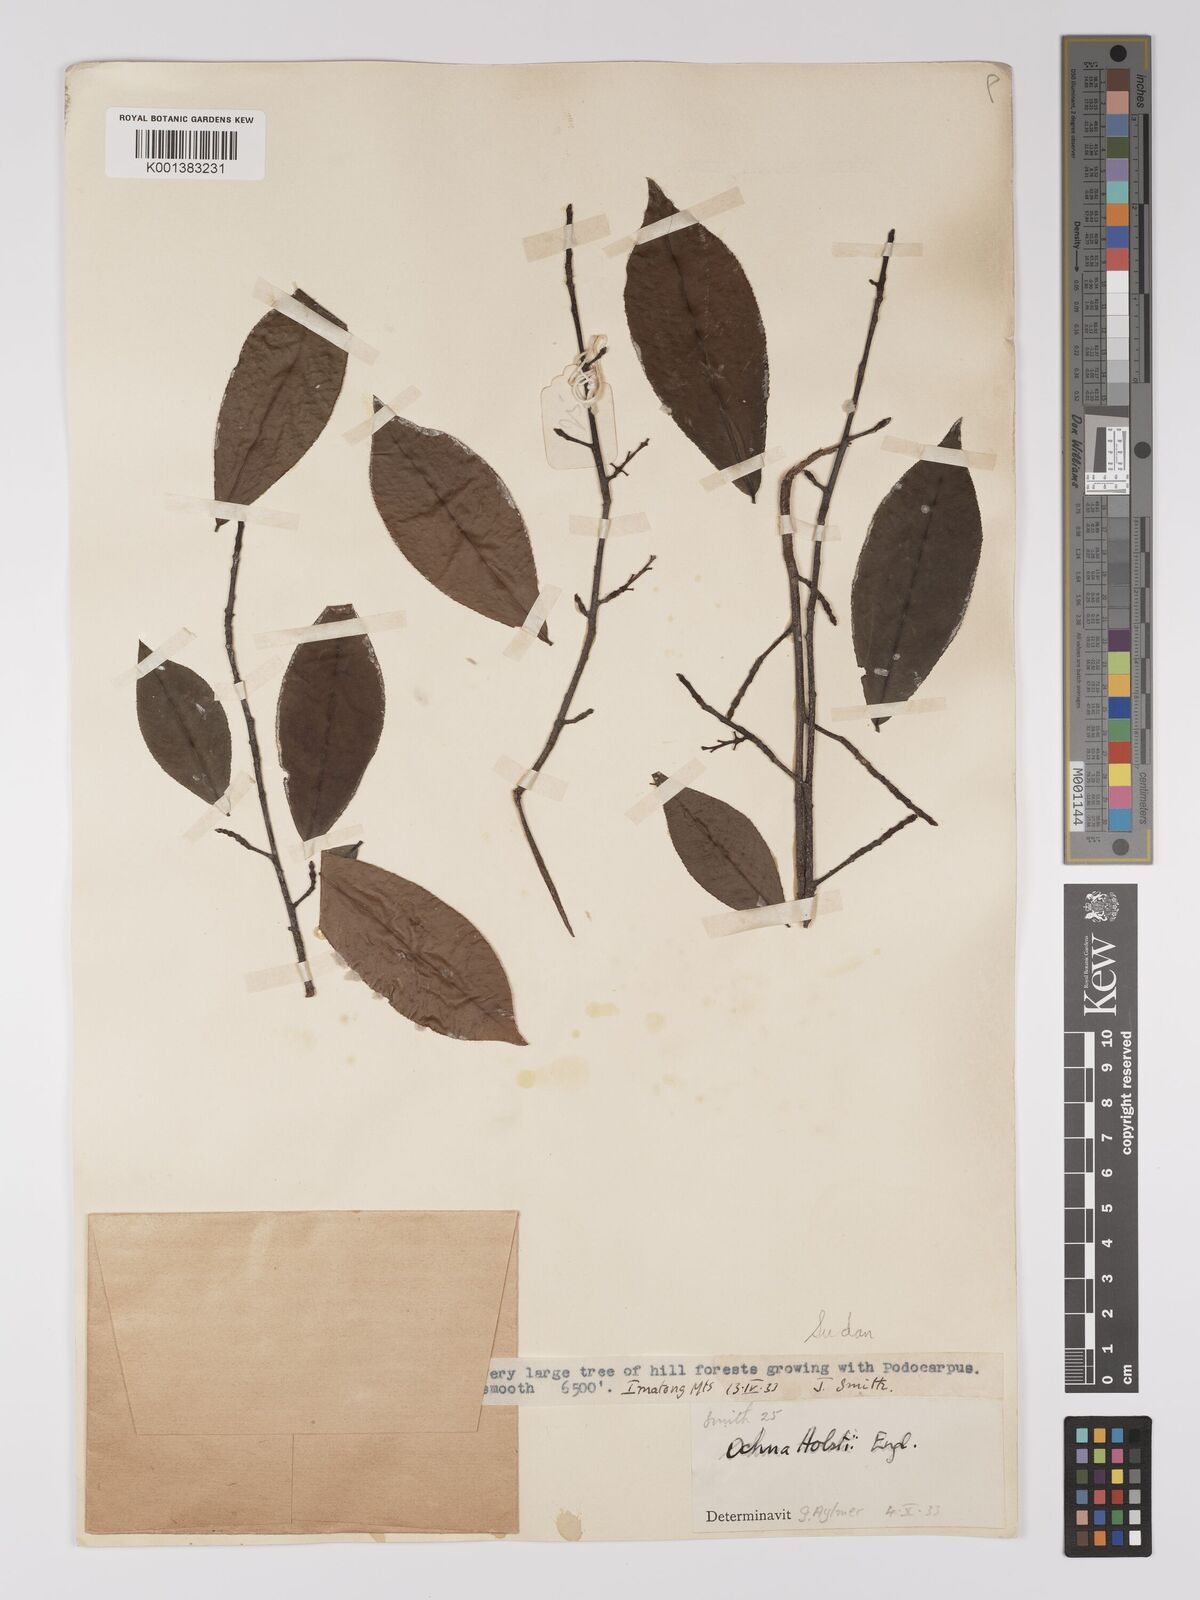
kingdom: Plantae
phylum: Tracheophyta
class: Magnoliopsida
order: Malpighiales
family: Ochnaceae
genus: Ochna
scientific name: Ochna holstii
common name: Red ironwood
